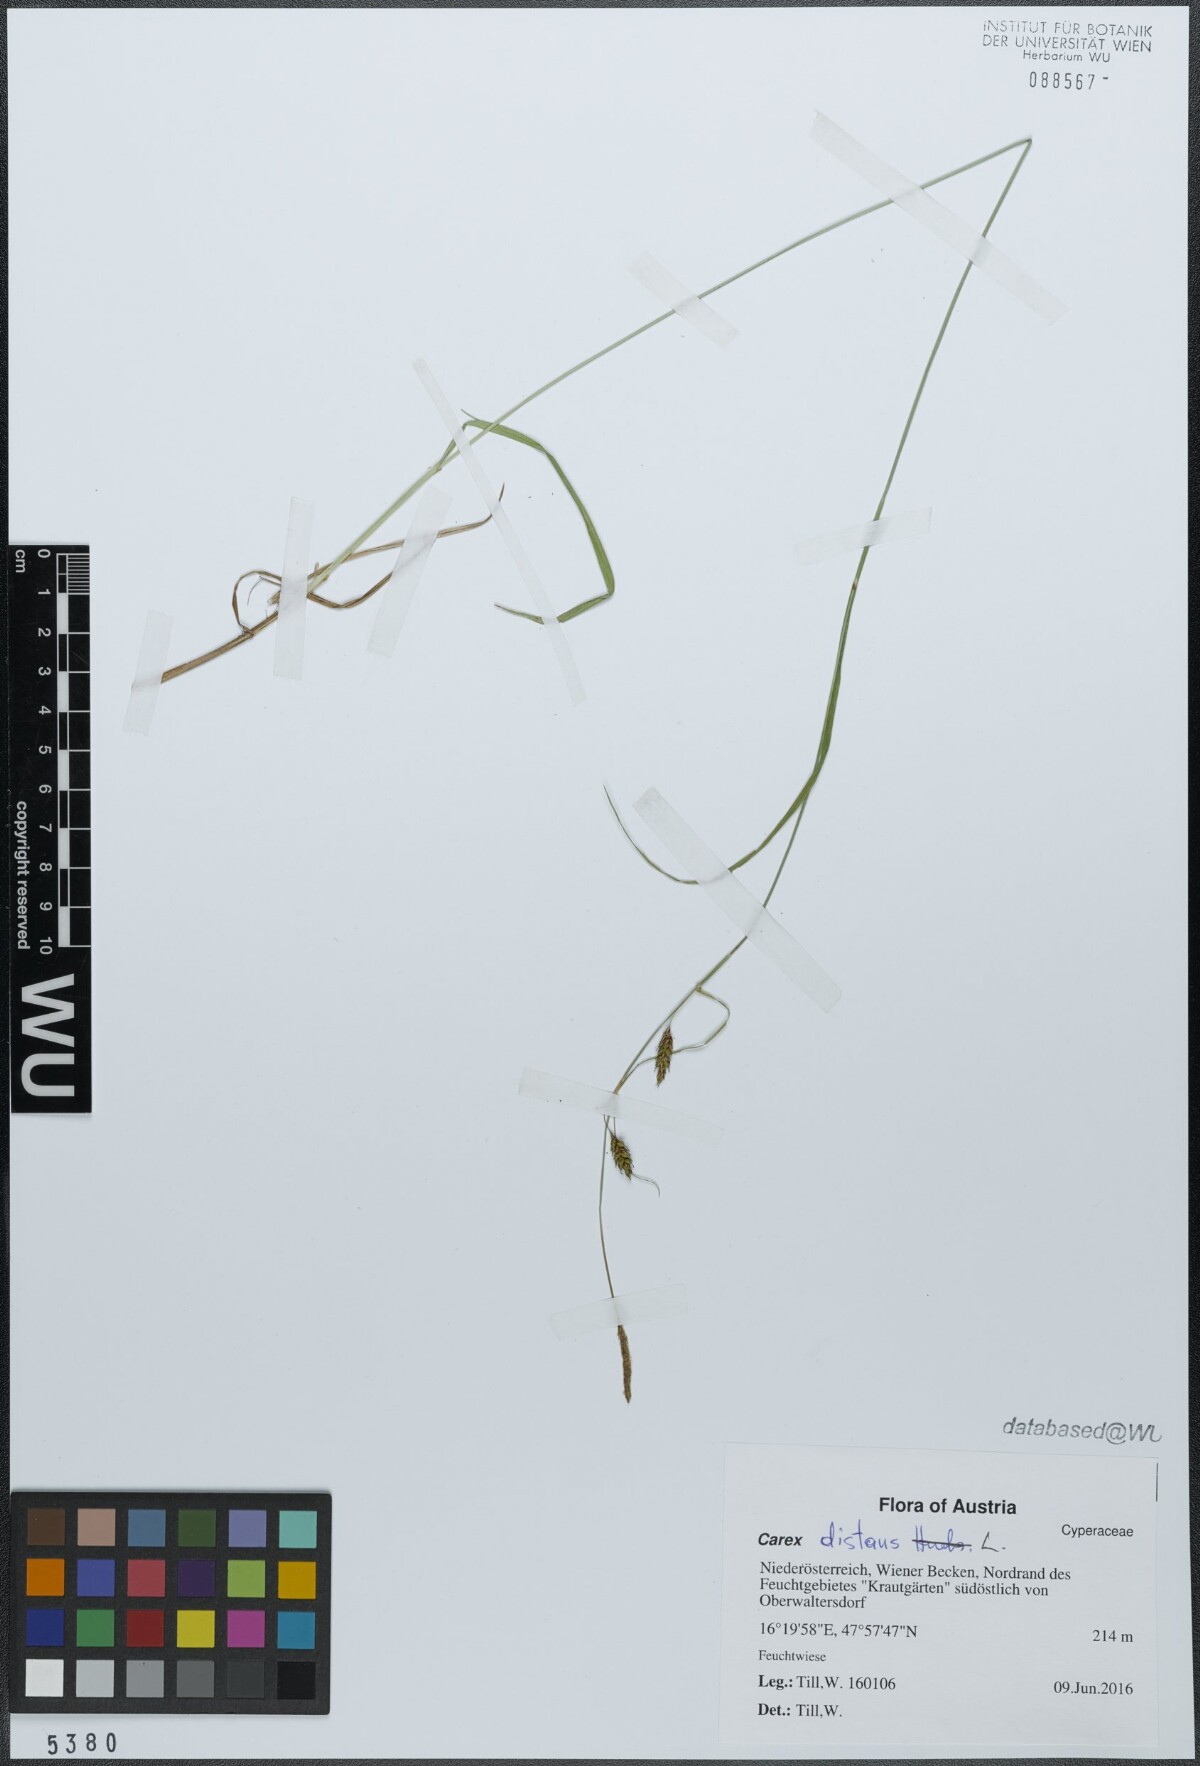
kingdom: Plantae
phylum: Tracheophyta
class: Liliopsida
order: Poales
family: Cyperaceae
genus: Carex
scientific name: Carex distans
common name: Distant sedge
